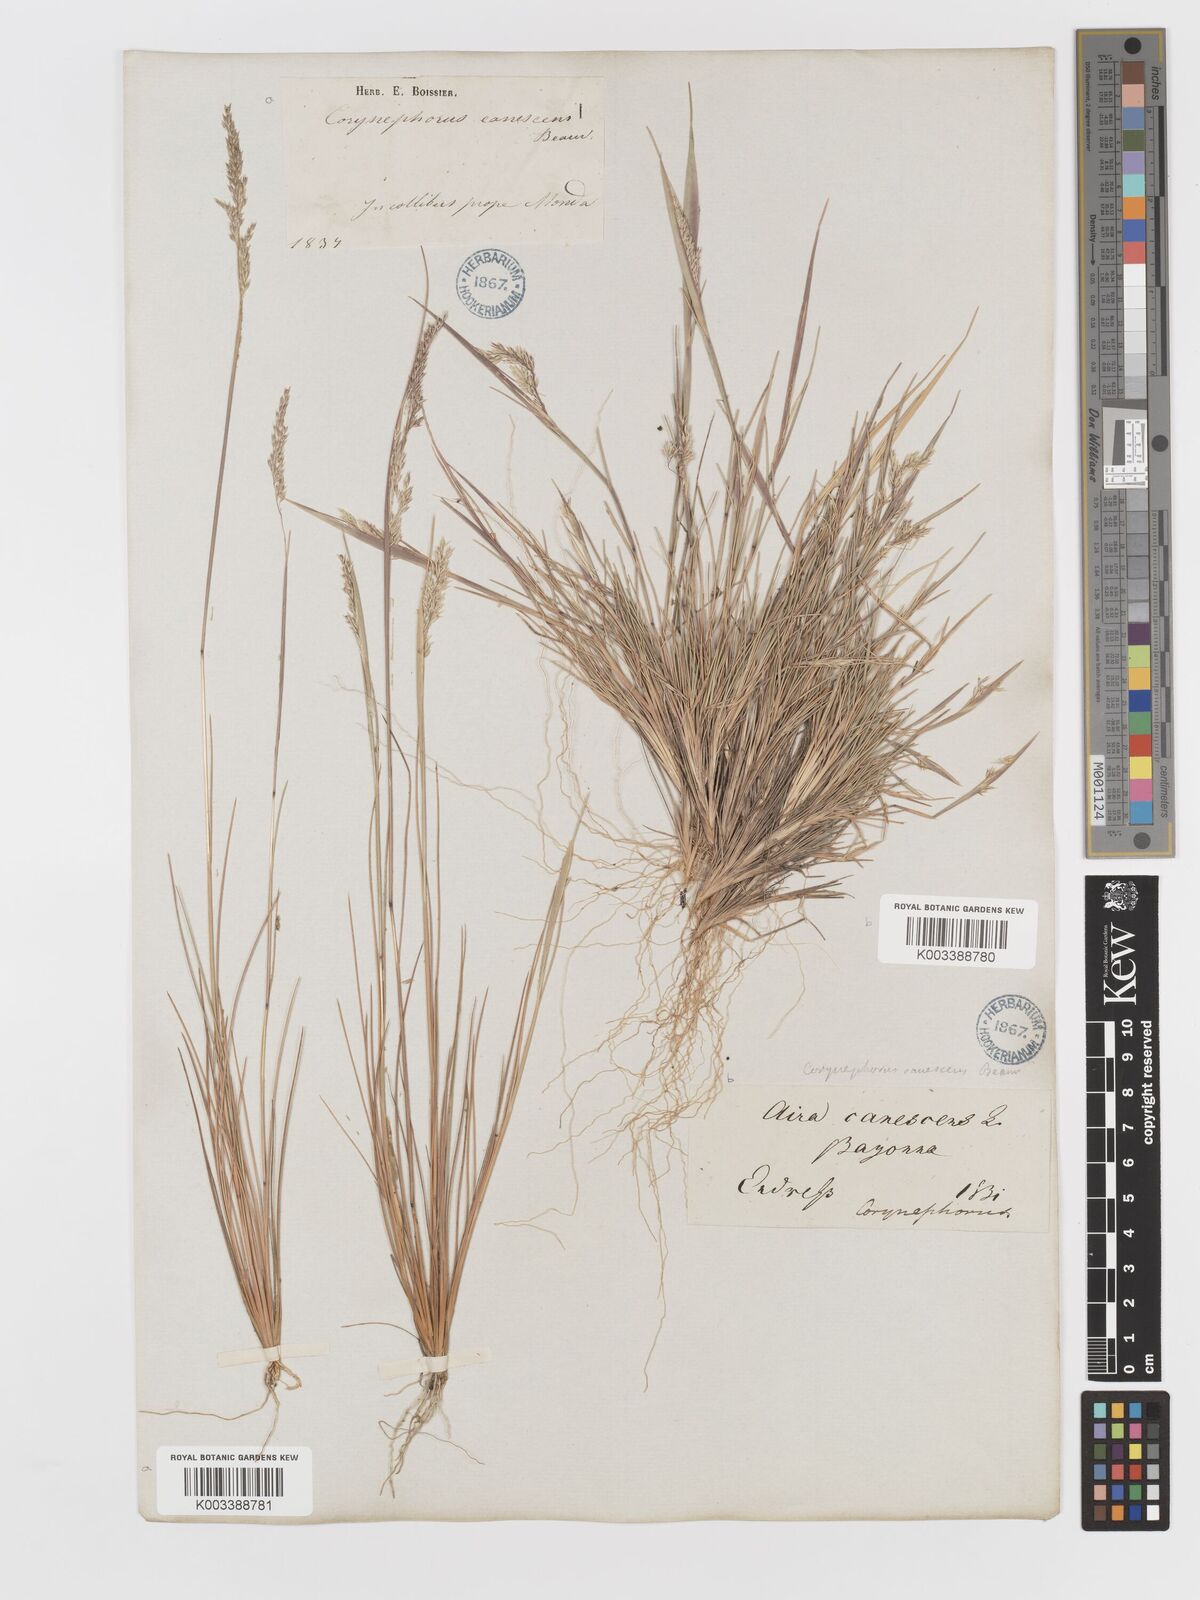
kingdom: Plantae
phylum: Tracheophyta
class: Liliopsida
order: Poales
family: Poaceae
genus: Corynephorus
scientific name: Corynephorus canescens
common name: Grey hair-grass
